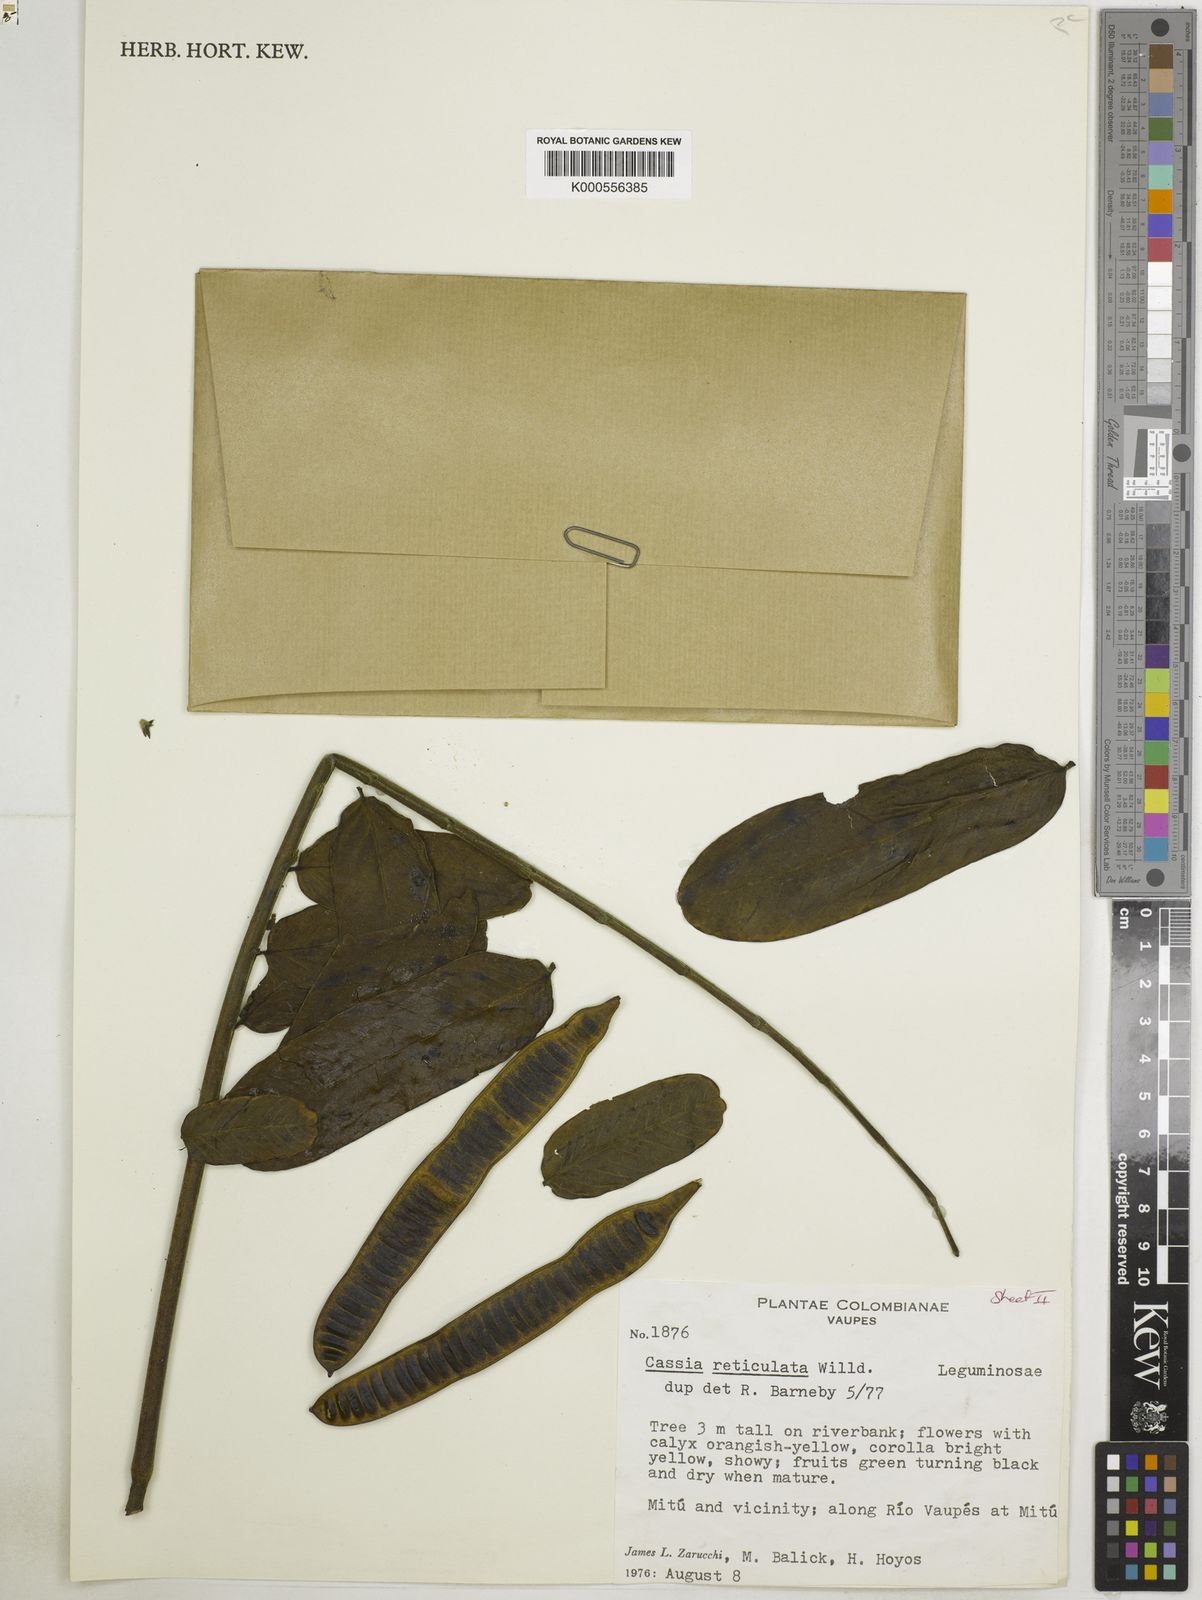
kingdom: Plantae
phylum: Tracheophyta
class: Magnoliopsida
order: Fabales
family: Fabaceae
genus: Senna
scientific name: Senna reticulata
